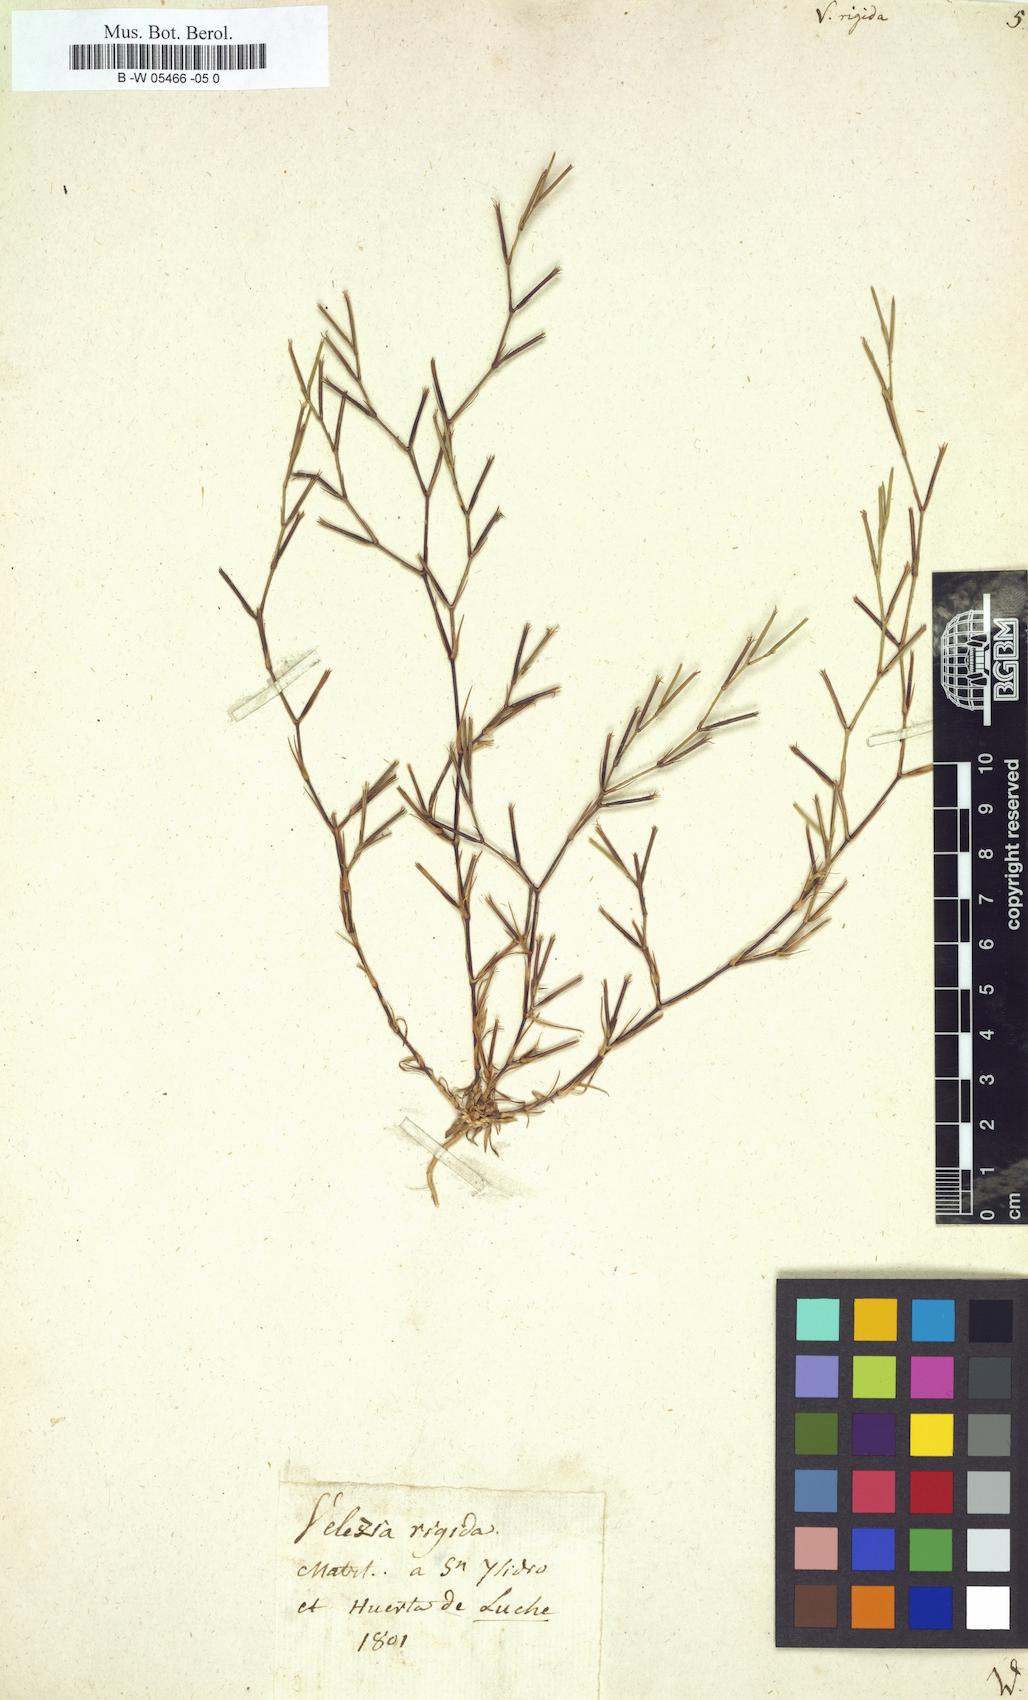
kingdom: Plantae
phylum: Tracheophyta
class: Magnoliopsida
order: Caryophyllales
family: Caryophyllaceae
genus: Dianthus
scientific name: Dianthus nudiflorus
